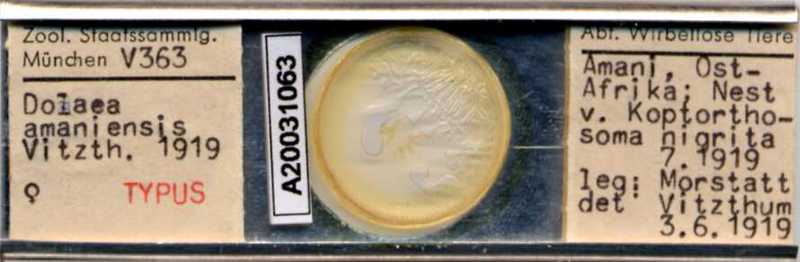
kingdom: Animalia
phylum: Arthropoda
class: Arachnida
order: Mesostigmata
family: Laelapidae
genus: Dinogamasus
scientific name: Dinogamasus
